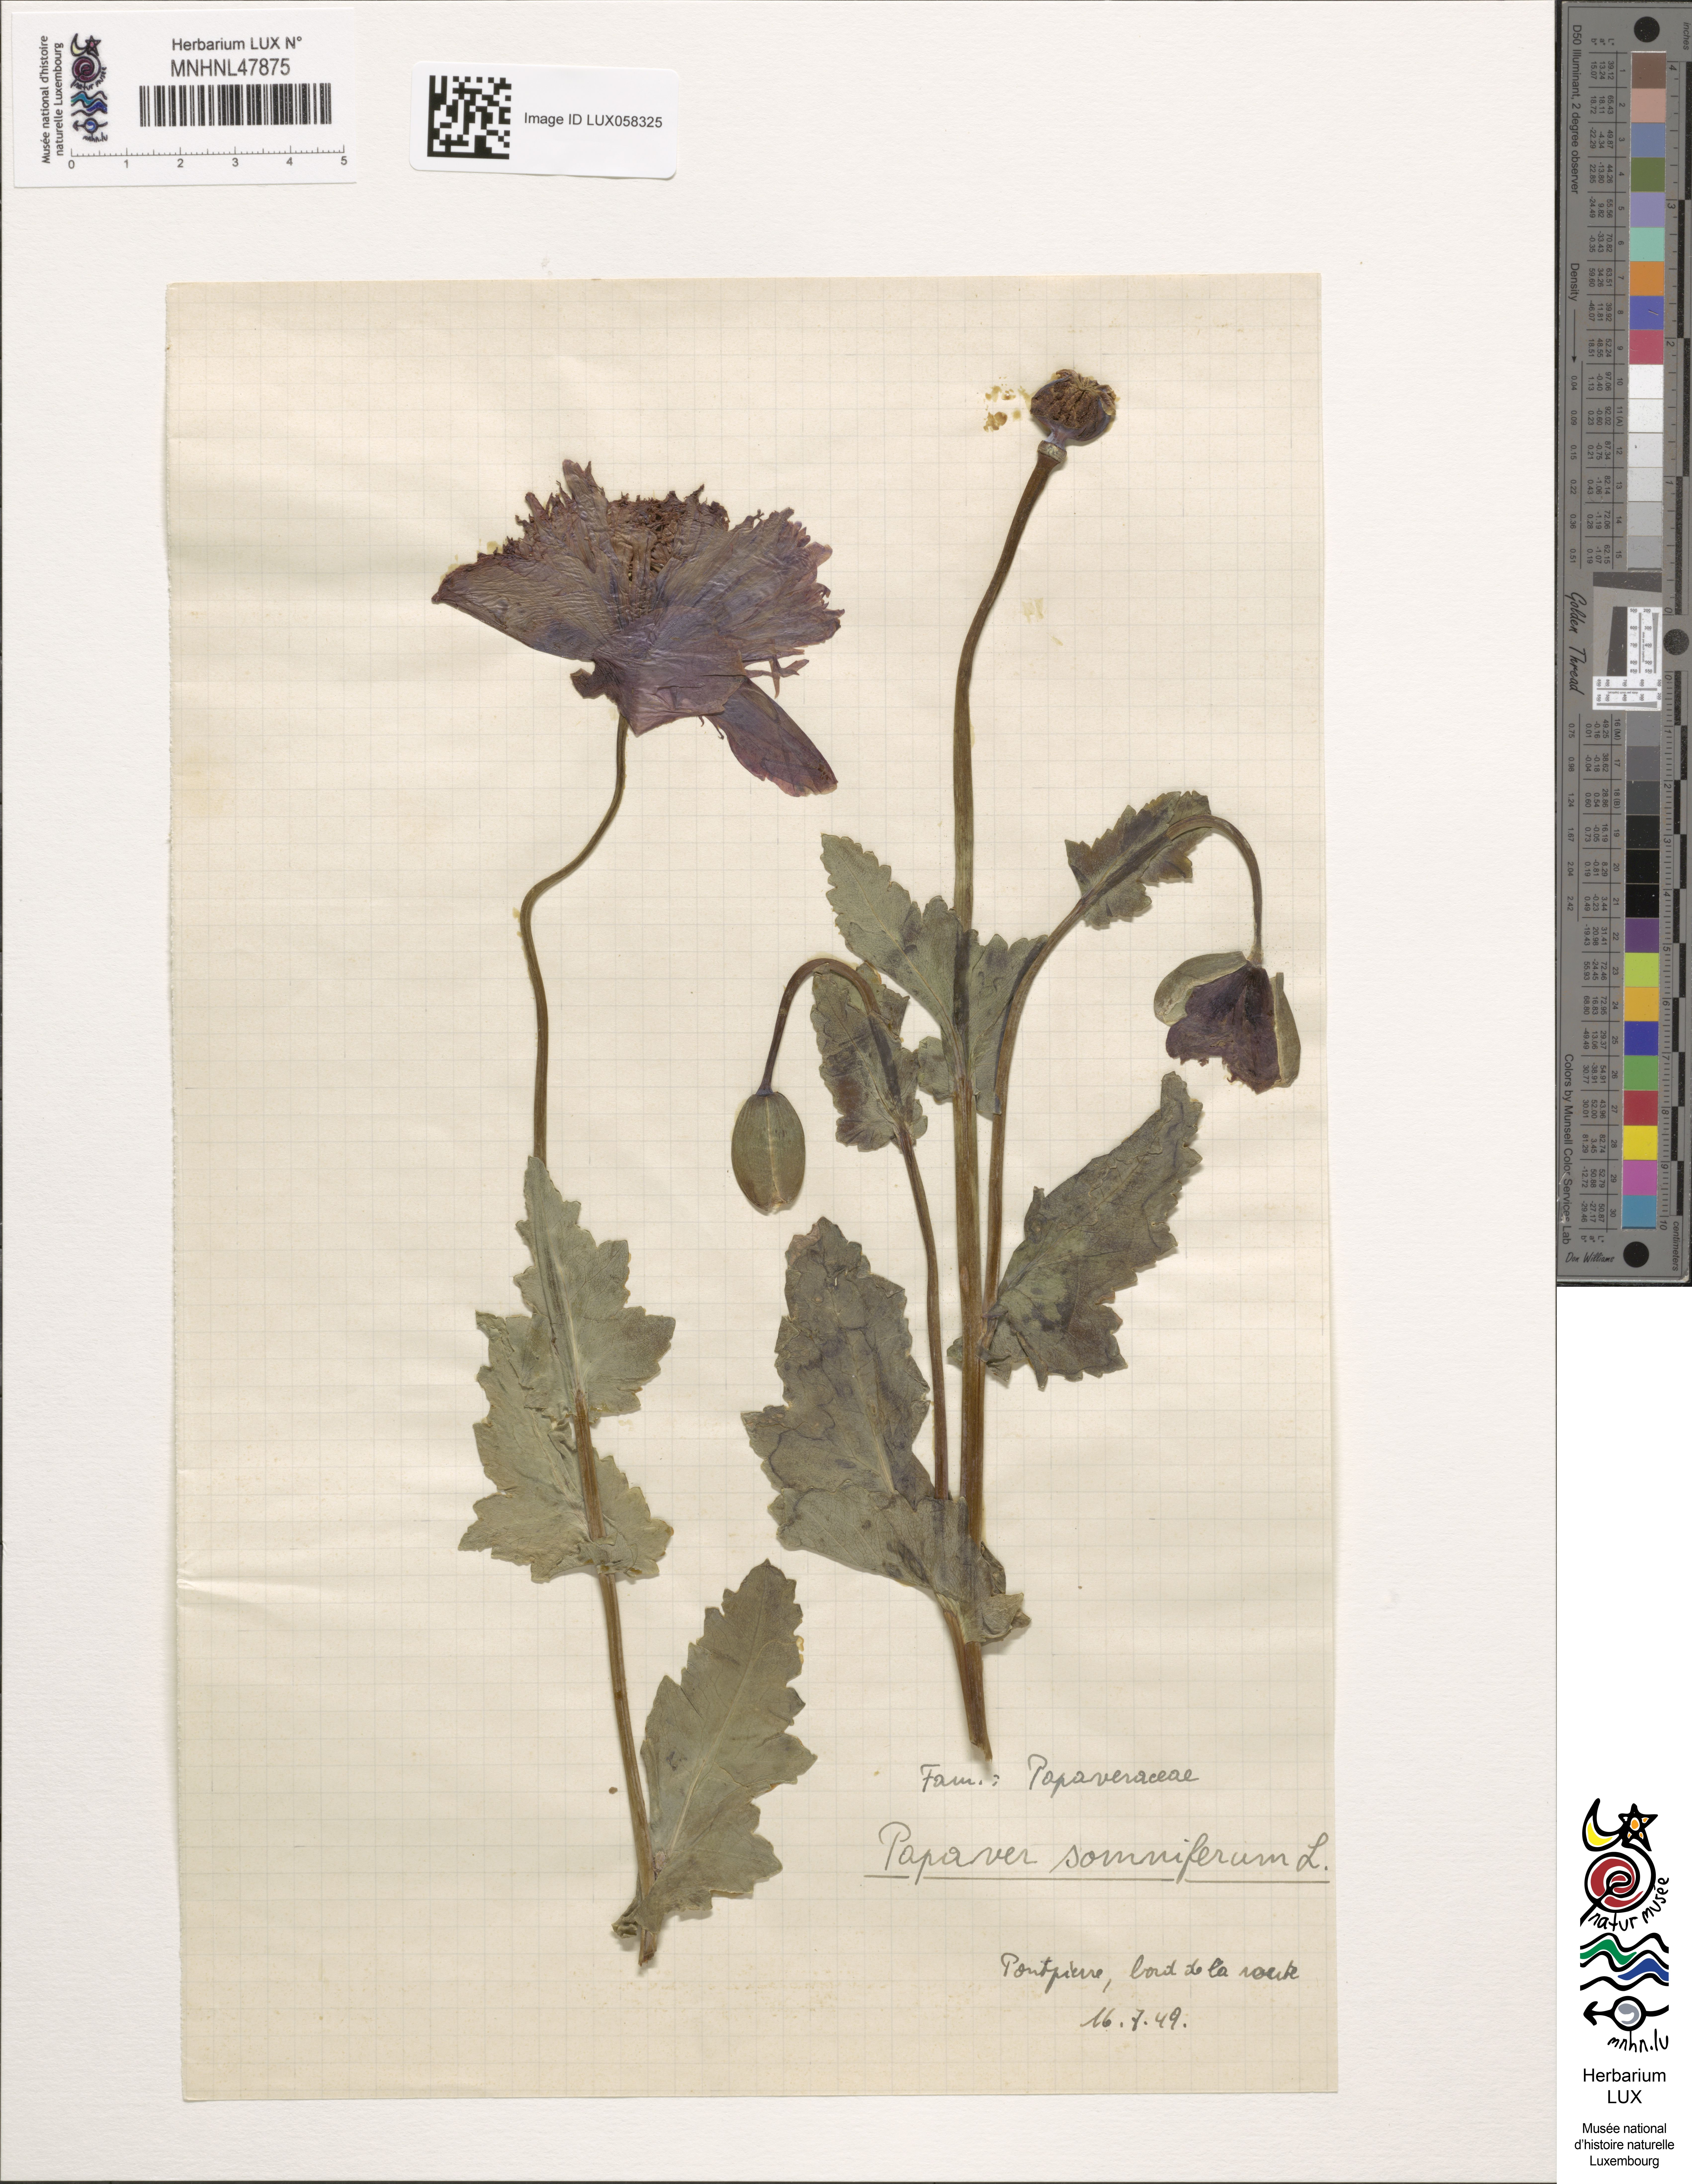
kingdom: Plantae
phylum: Tracheophyta
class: Magnoliopsida
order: Ranunculales
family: Papaveraceae
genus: Papaver
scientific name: Papaver somniferum
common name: Opium poppy
